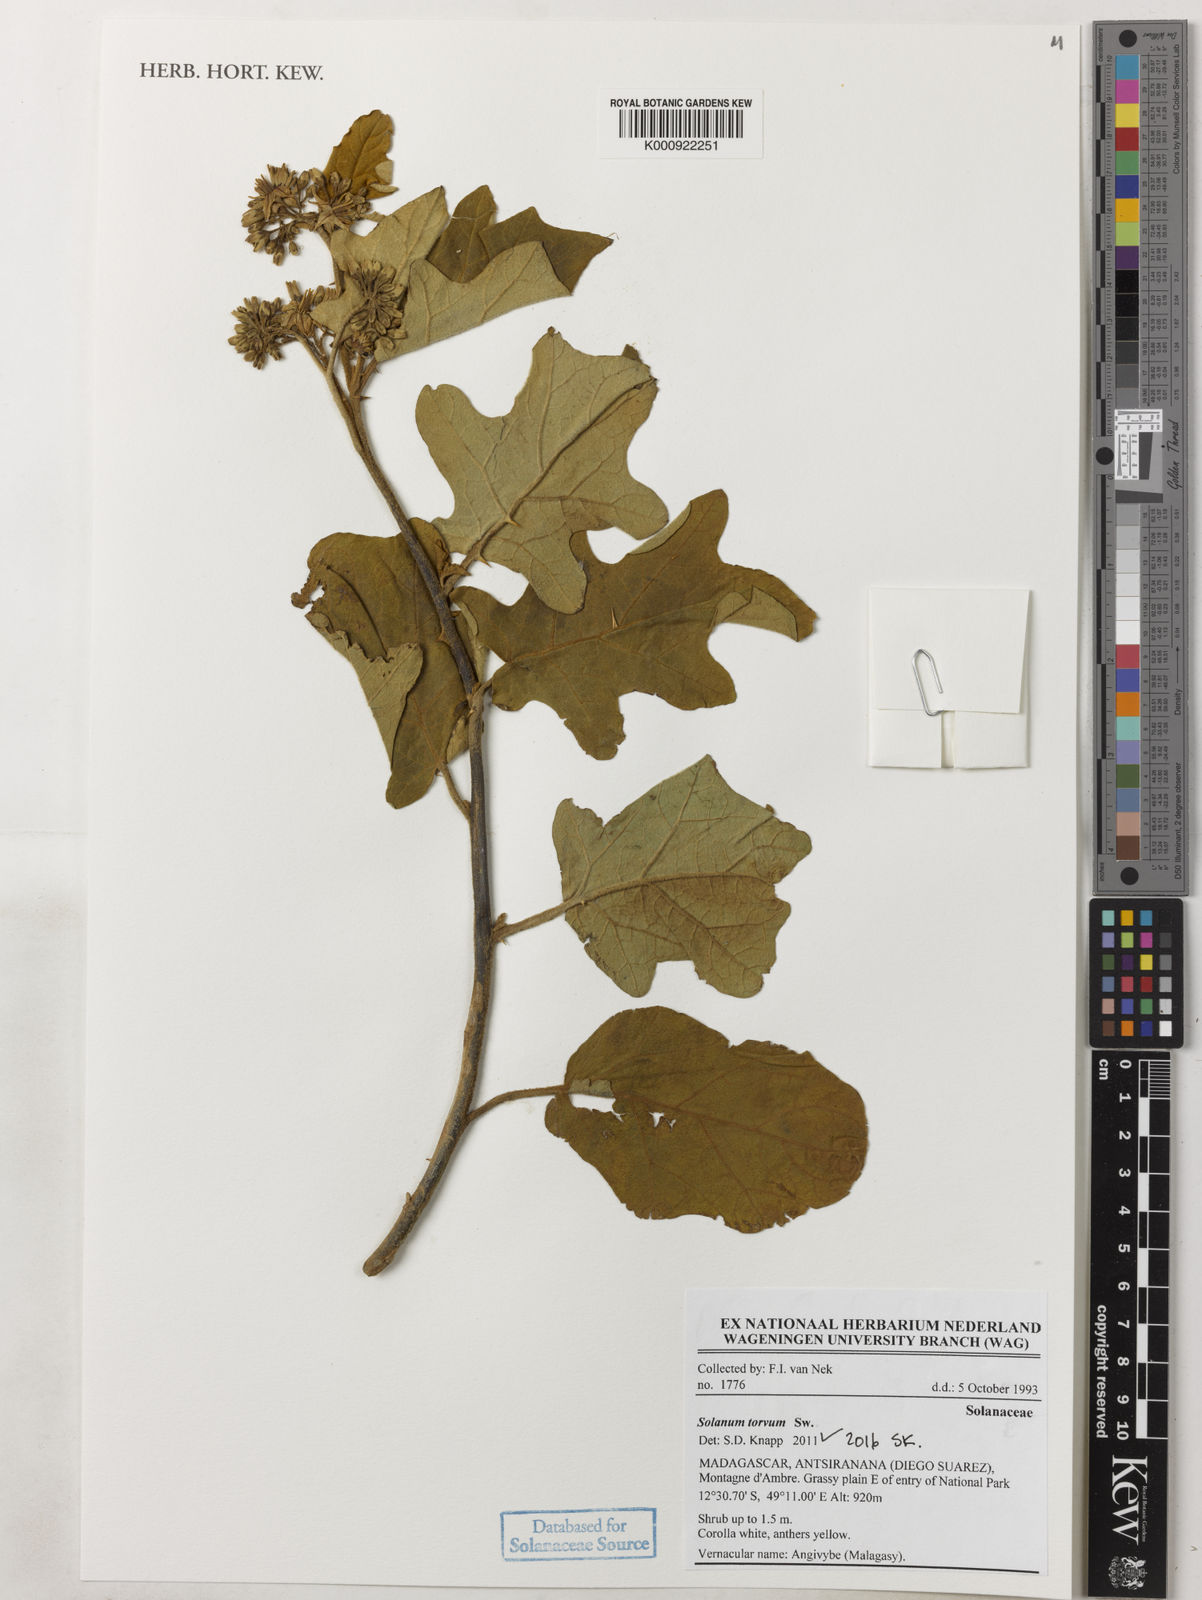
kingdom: Plantae
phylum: Tracheophyta
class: Magnoliopsida
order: Solanales
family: Solanaceae
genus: Solanum
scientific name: Solanum torvum
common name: Turkey berry
